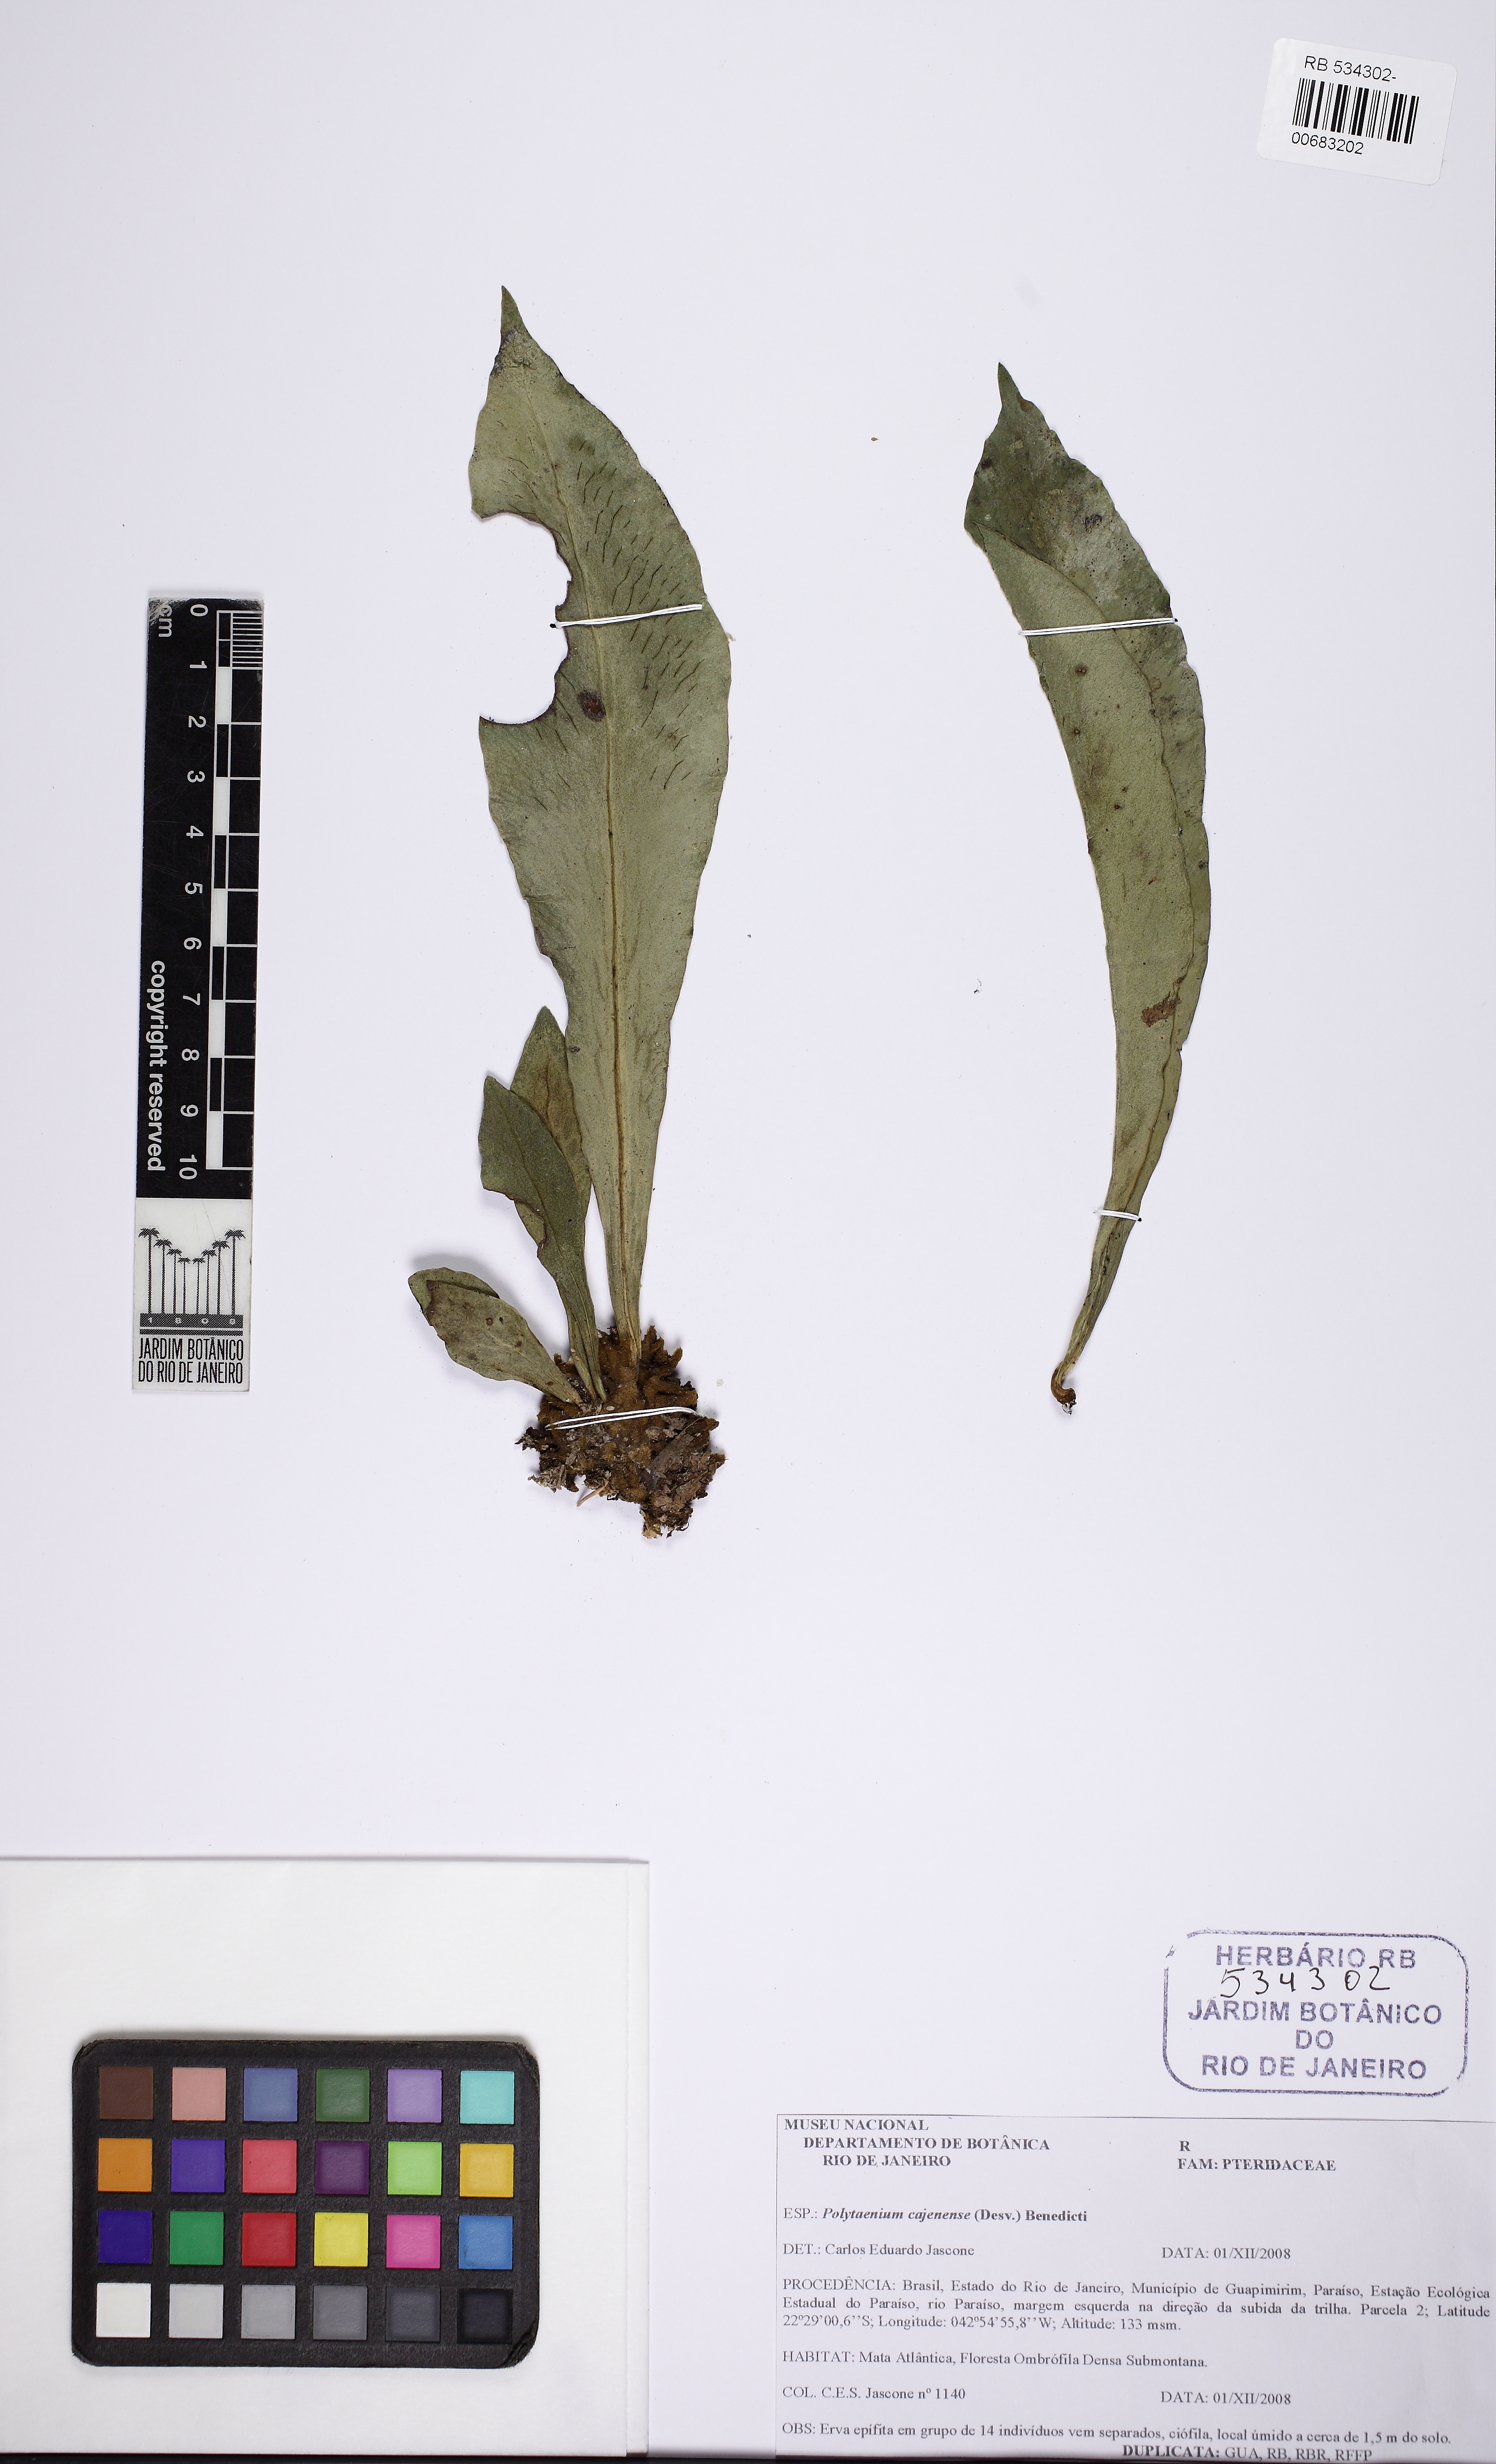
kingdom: Plantae
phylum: Tracheophyta
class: Polypodiopsida
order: Polypodiales
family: Pteridaceae
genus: Polytaenium
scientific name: Polytaenium cajenense
